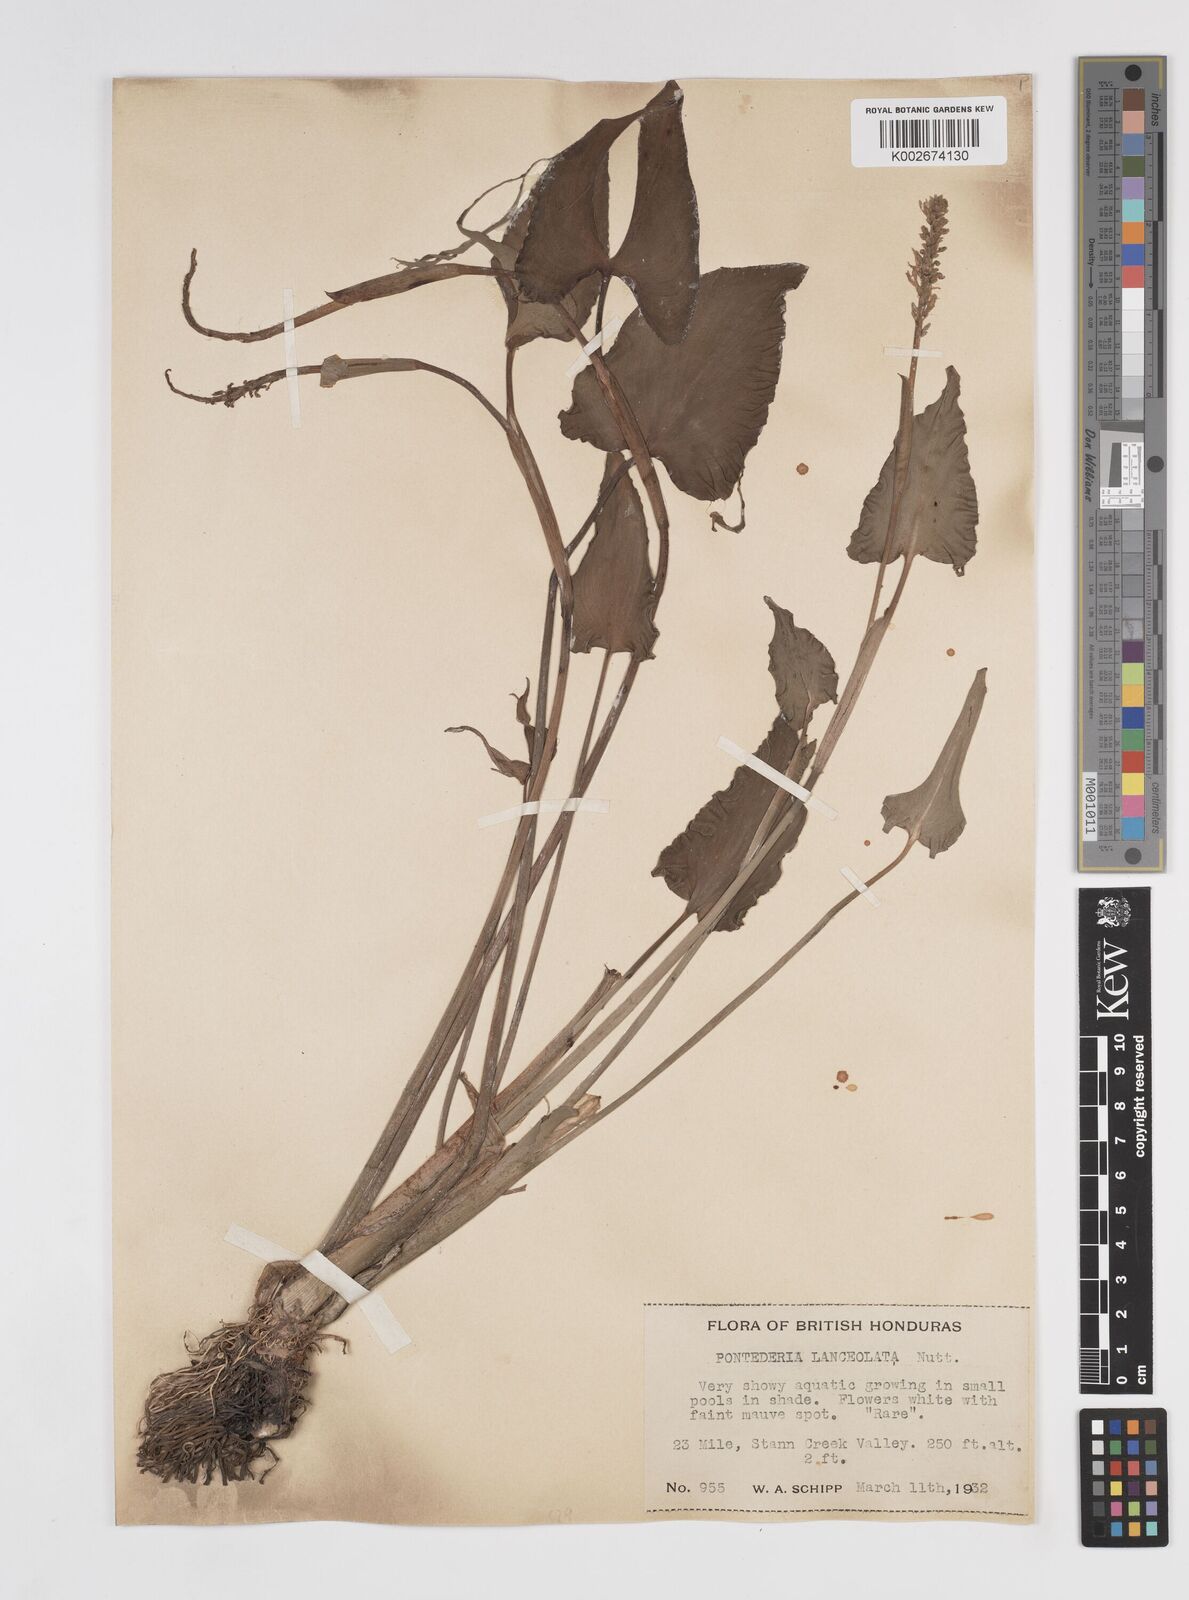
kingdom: Plantae
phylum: Tracheophyta
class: Liliopsida
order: Commelinales
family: Pontederiaceae
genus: Pontederia
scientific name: Pontederia
